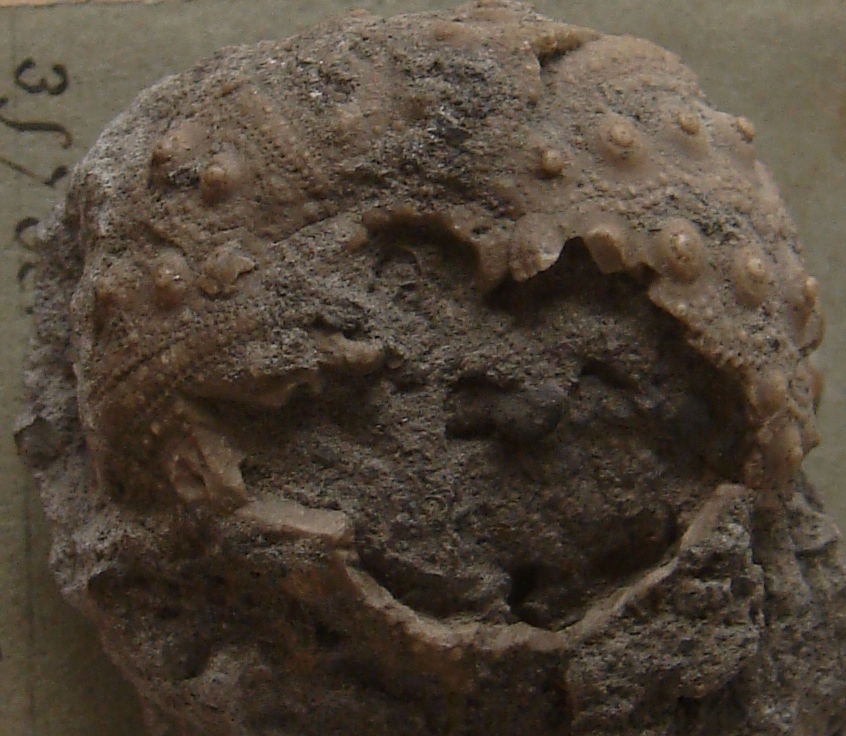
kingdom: Animalia
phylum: Echinodermata
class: Echinoidea
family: Hemicidaridae
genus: Hemitiaris
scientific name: Hemitiaris purbeckensis
